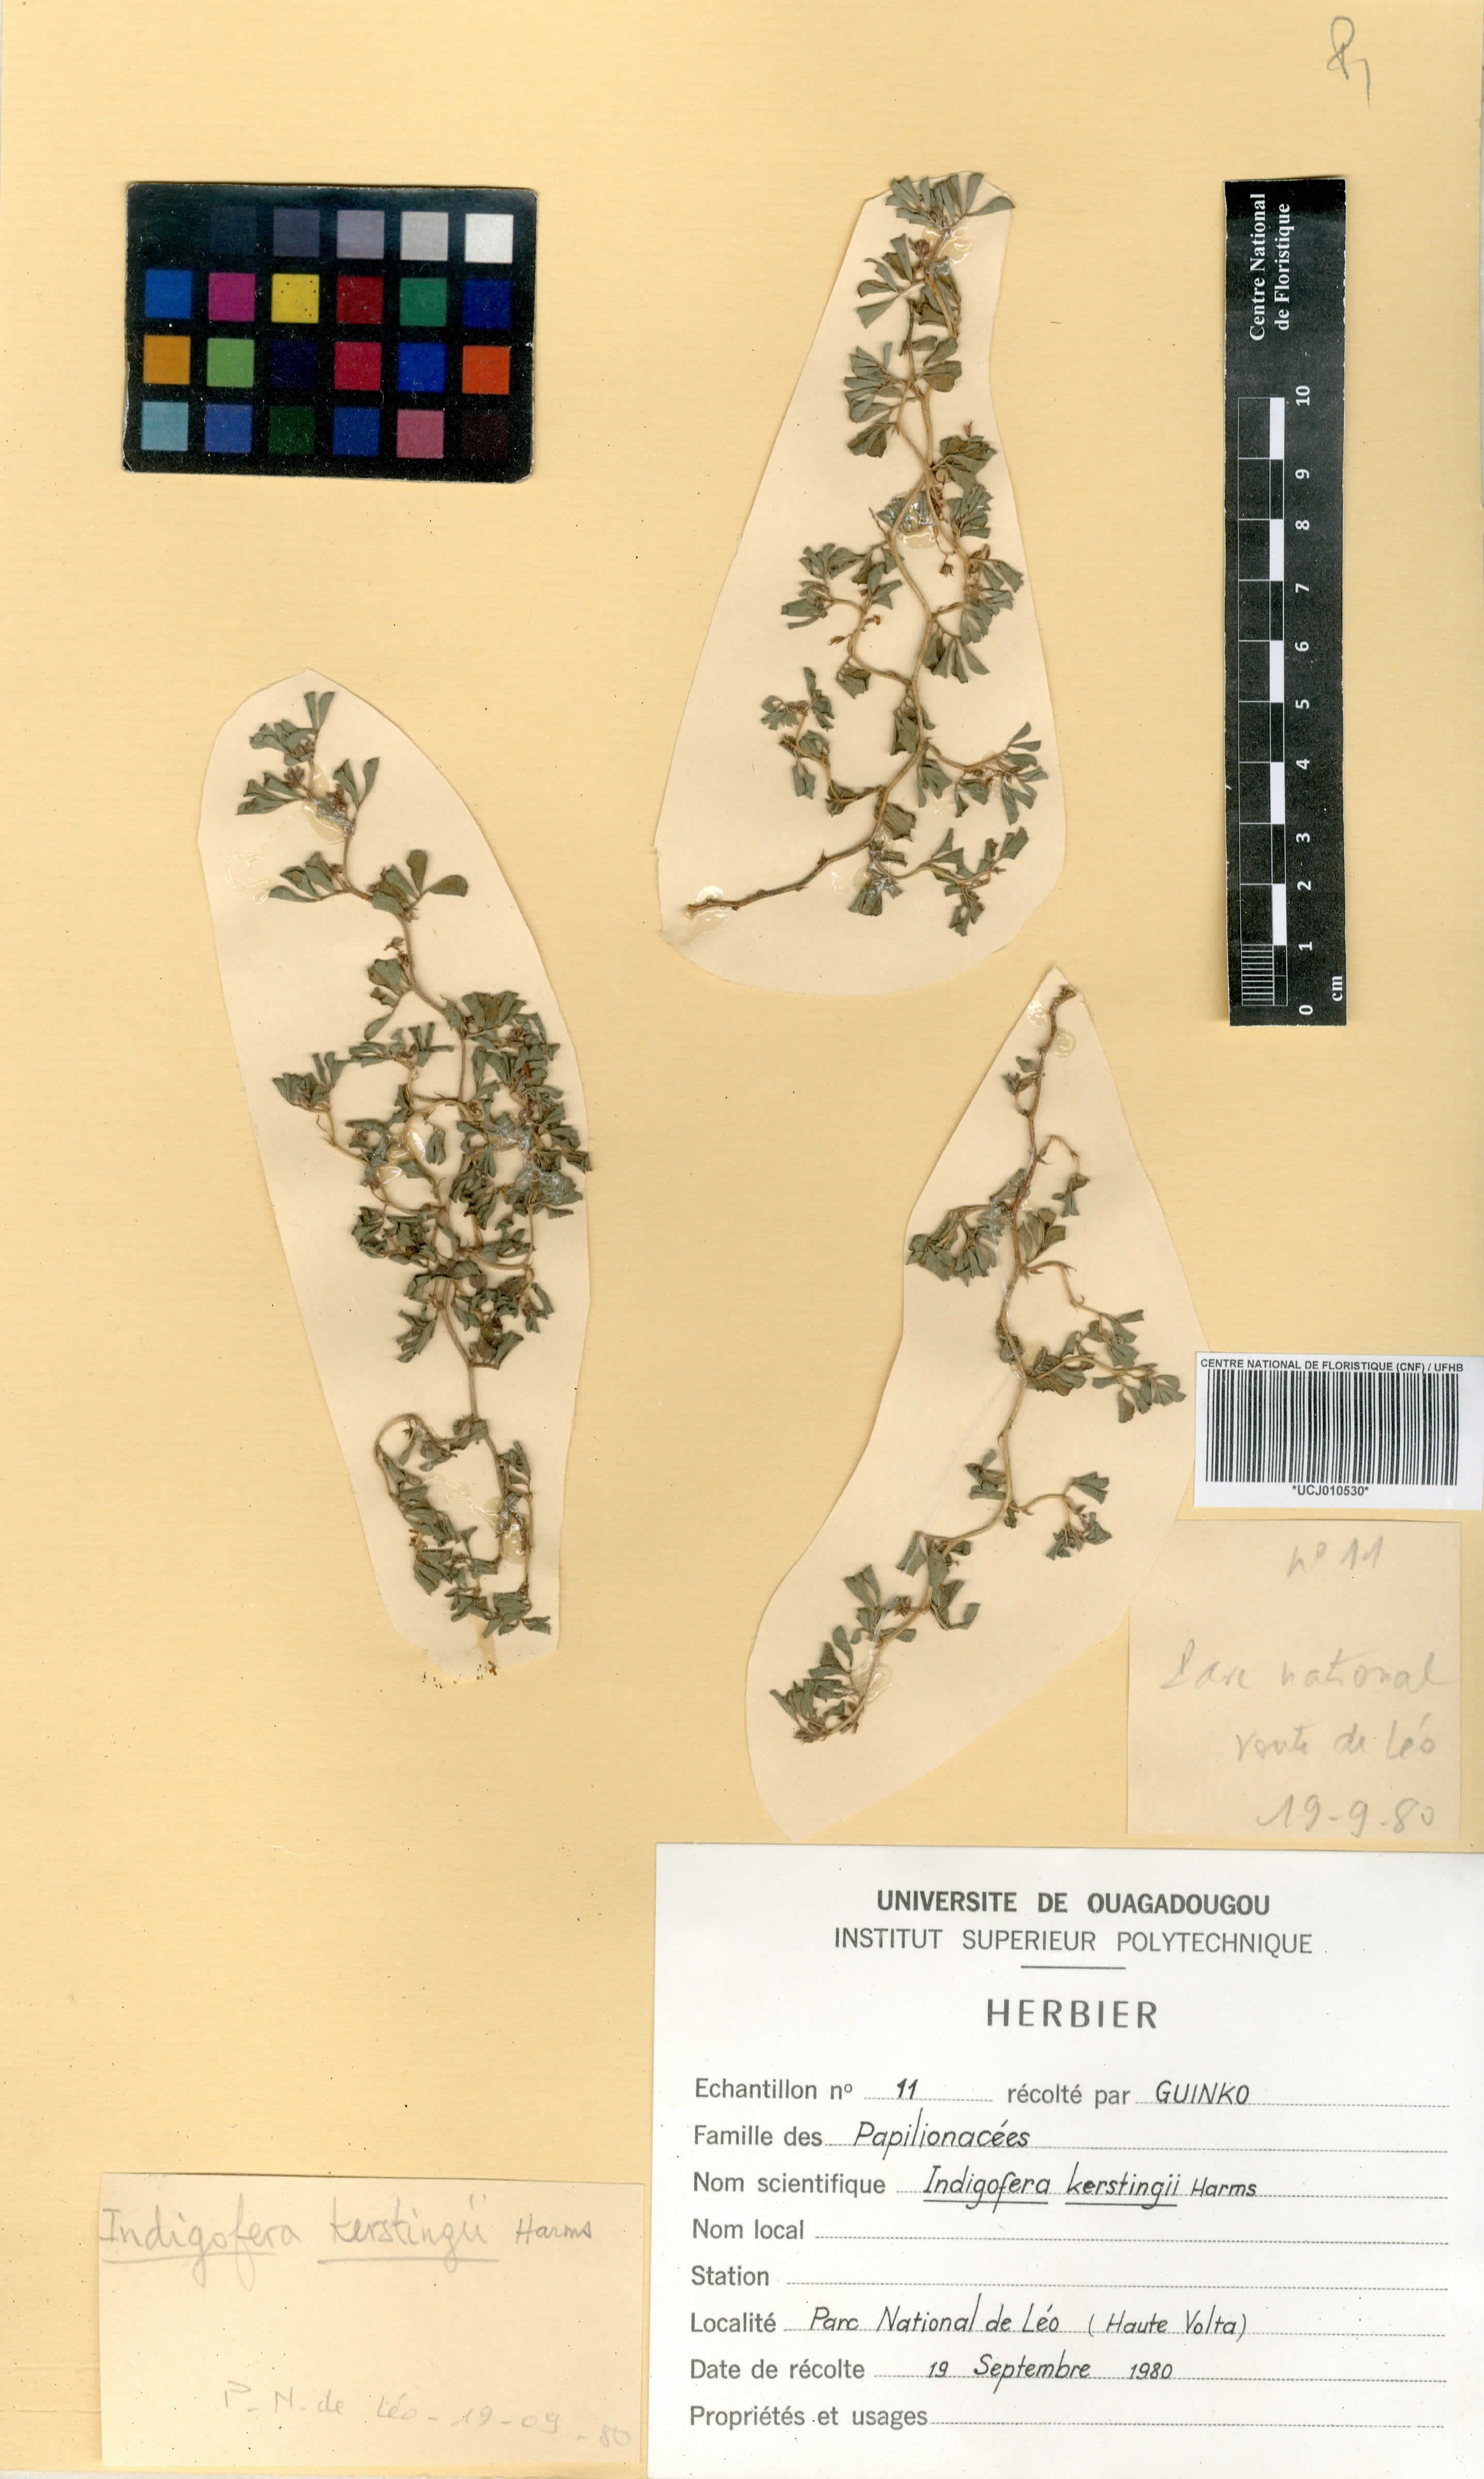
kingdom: Plantae
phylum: Tracheophyta
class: Magnoliopsida
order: Fabales
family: Fabaceae
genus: Indigofera
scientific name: Indigofera kerstingii
